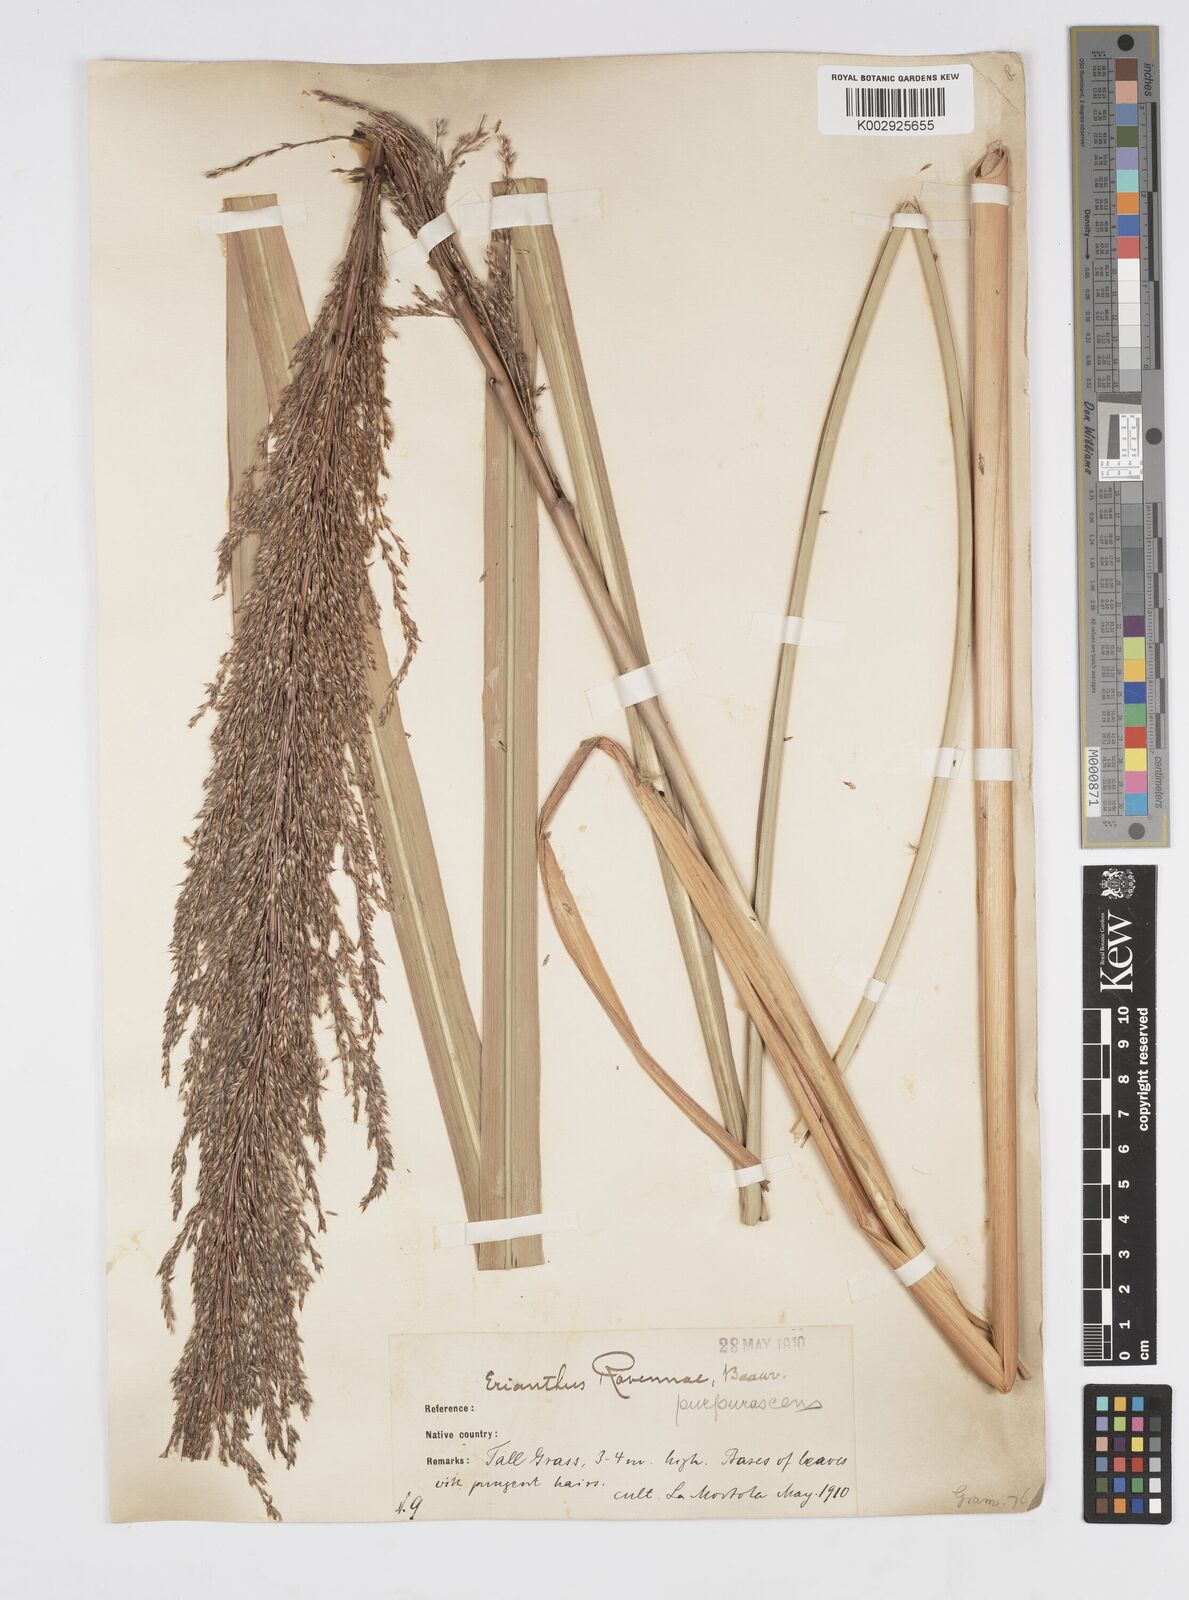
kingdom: Plantae
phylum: Tracheophyta
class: Liliopsida
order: Poales
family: Poaceae
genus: Tripidium
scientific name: Tripidium ravennae
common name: Ravenna grass
